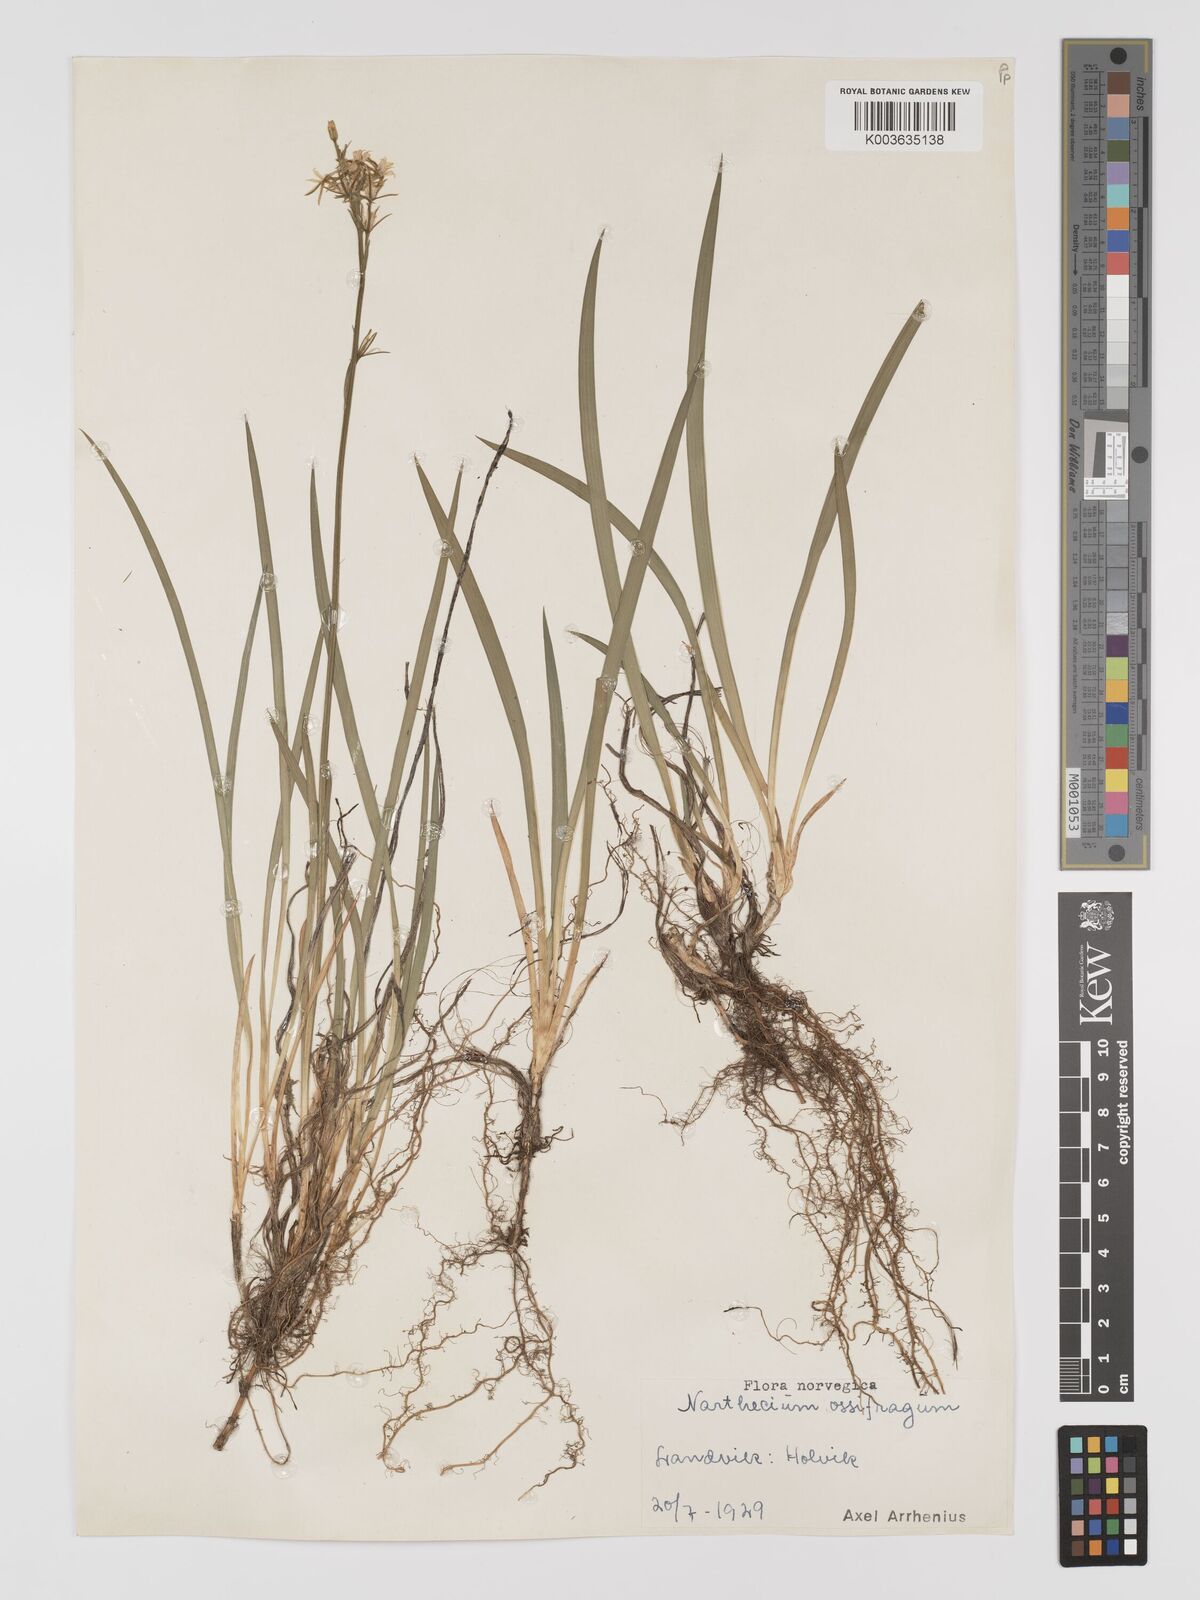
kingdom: Plantae
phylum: Tracheophyta
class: Liliopsida
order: Dioscoreales
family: Nartheciaceae
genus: Narthecium
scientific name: Narthecium ossifragum
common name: Bog asphodel
